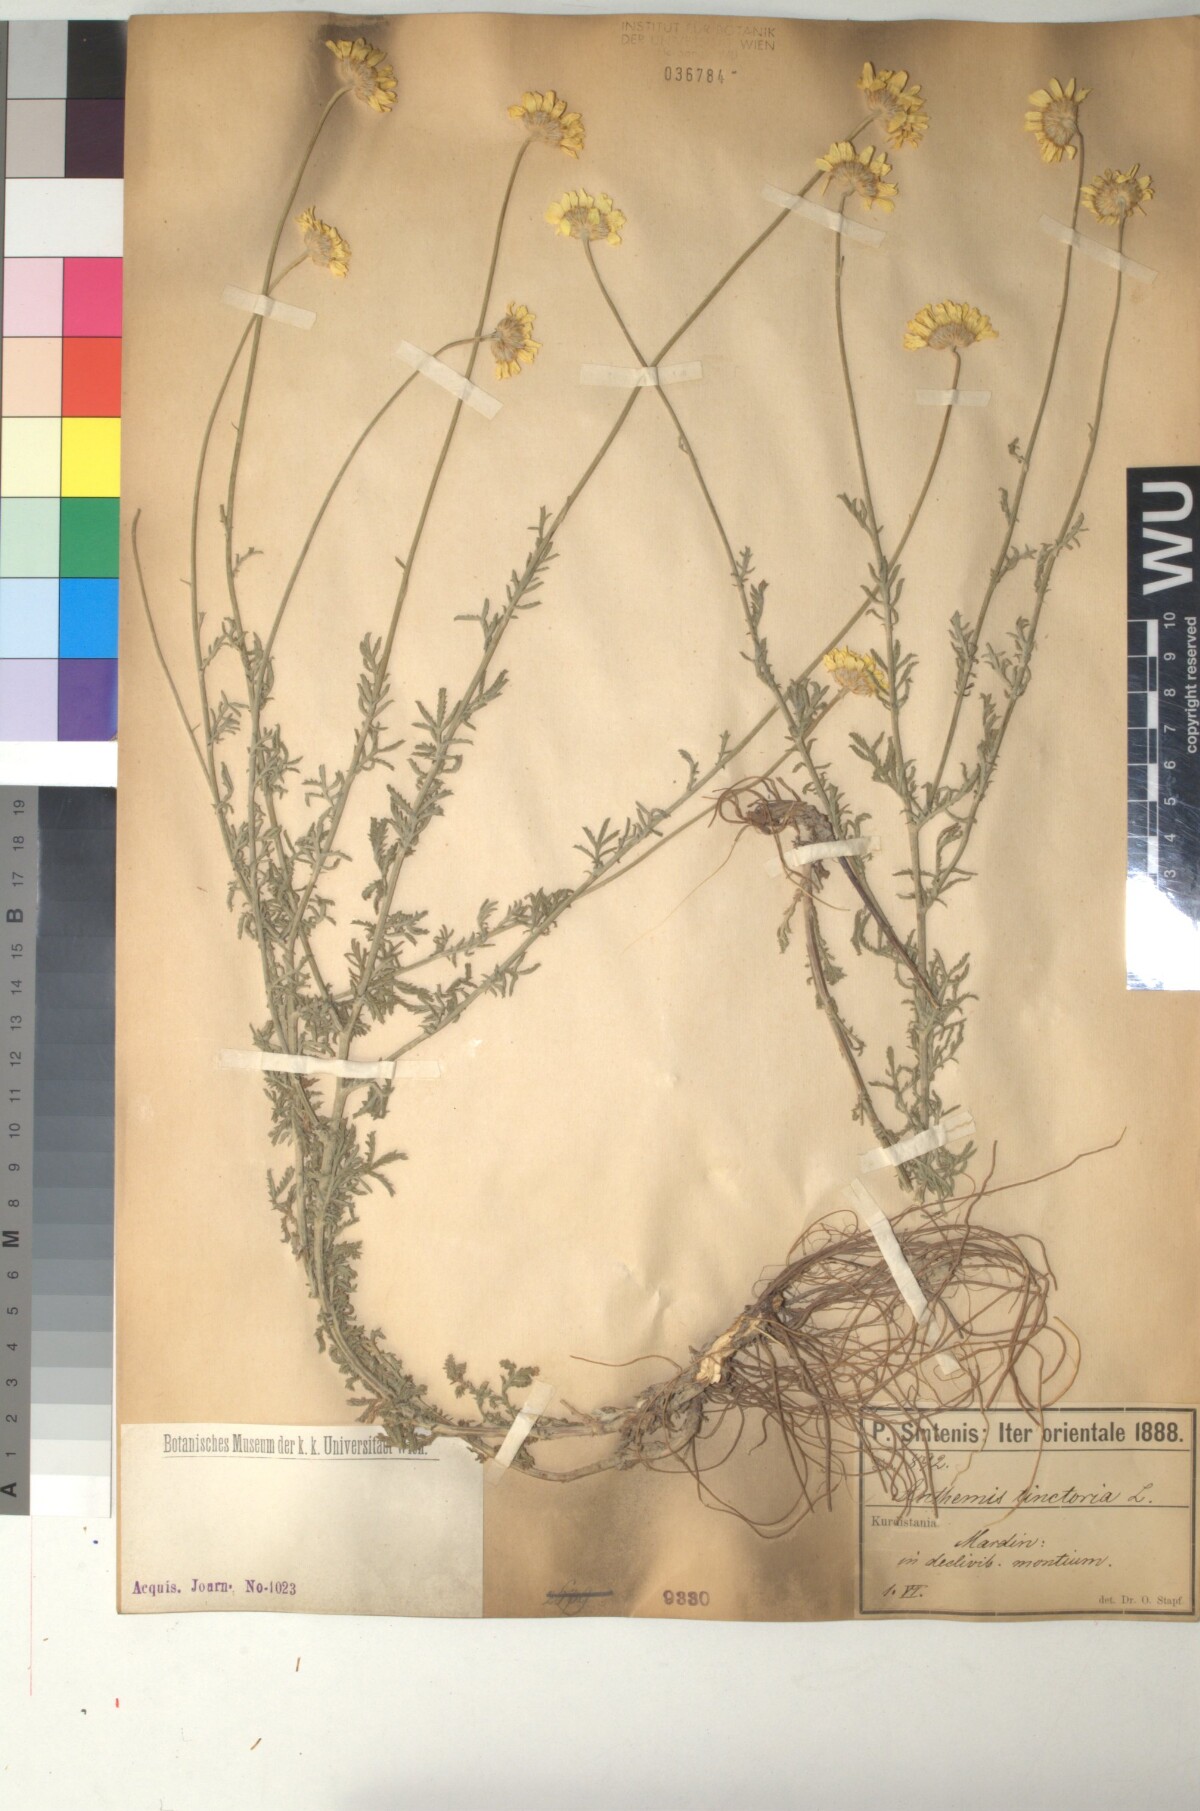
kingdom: Plantae
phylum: Tracheophyta
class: Magnoliopsida
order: Asterales
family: Asteraceae
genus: Cota
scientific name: Cota tinctoria
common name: Golden chamomile
